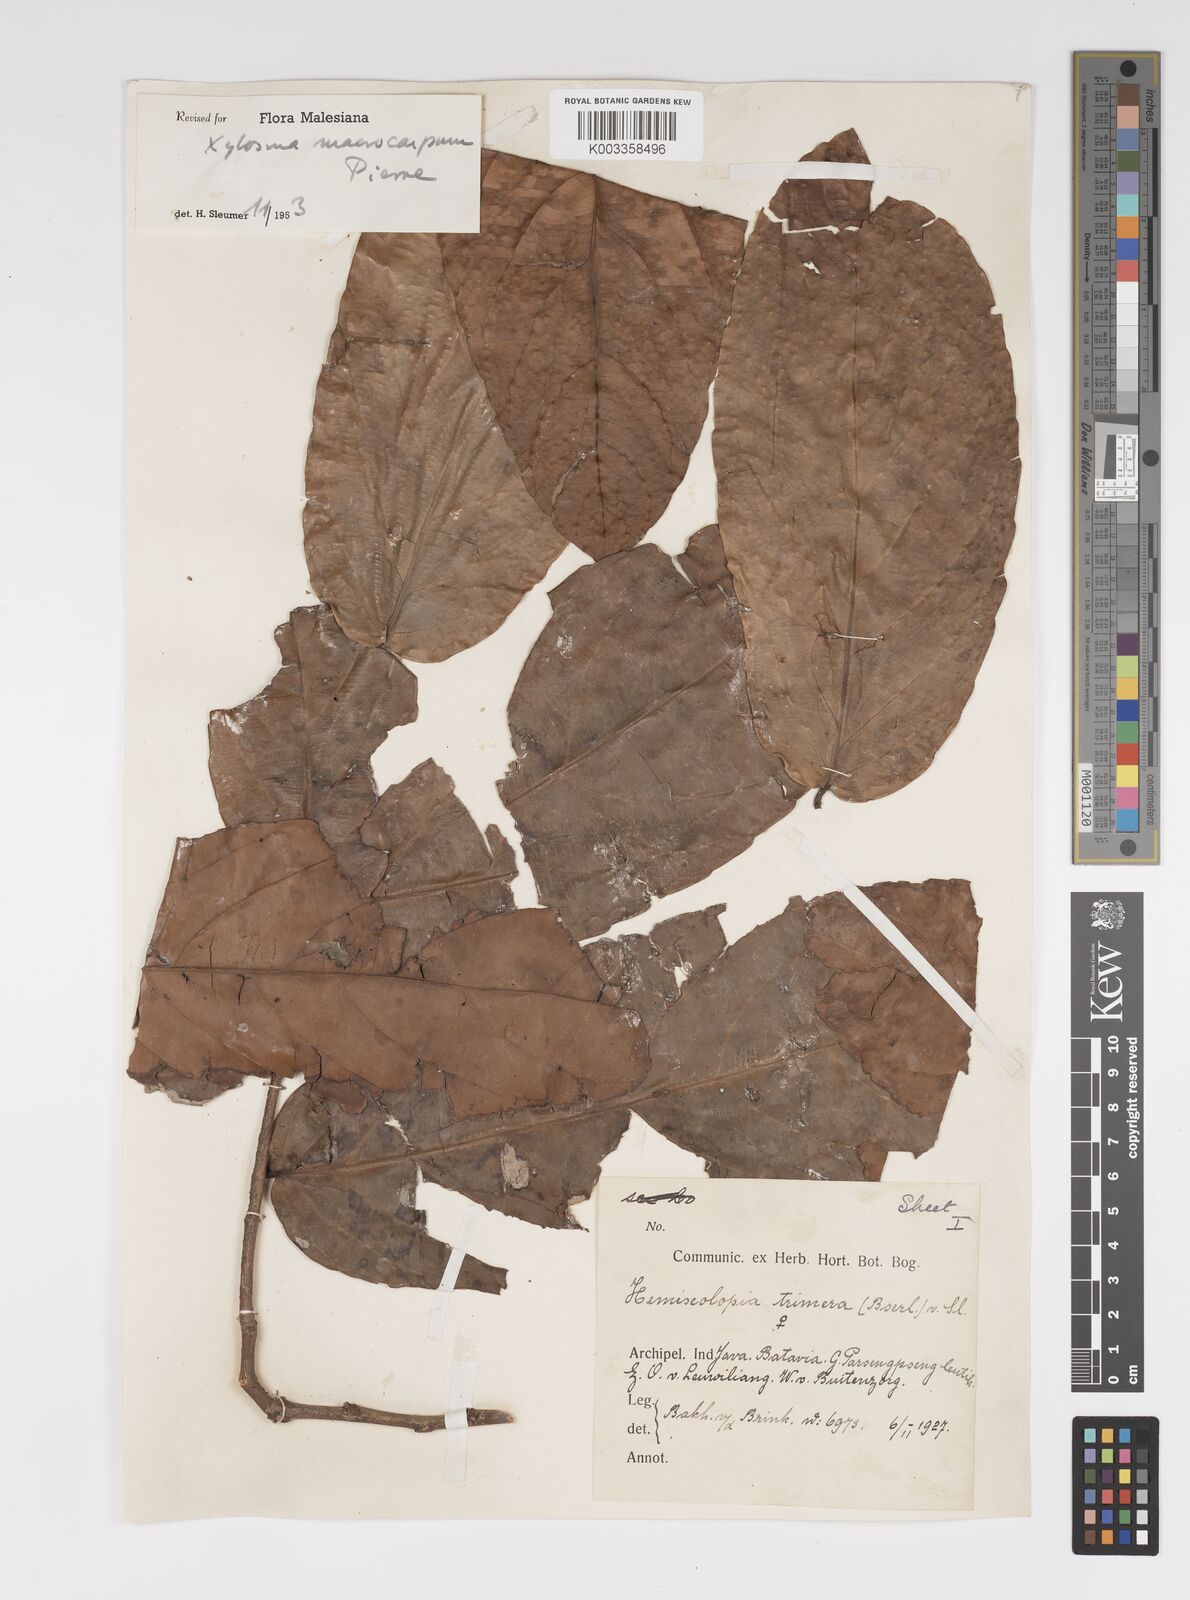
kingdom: Plantae
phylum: Tracheophyta
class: Magnoliopsida
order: Malpighiales
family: Salicaceae
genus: Hemiscolopia
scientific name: Hemiscolopia trimera
